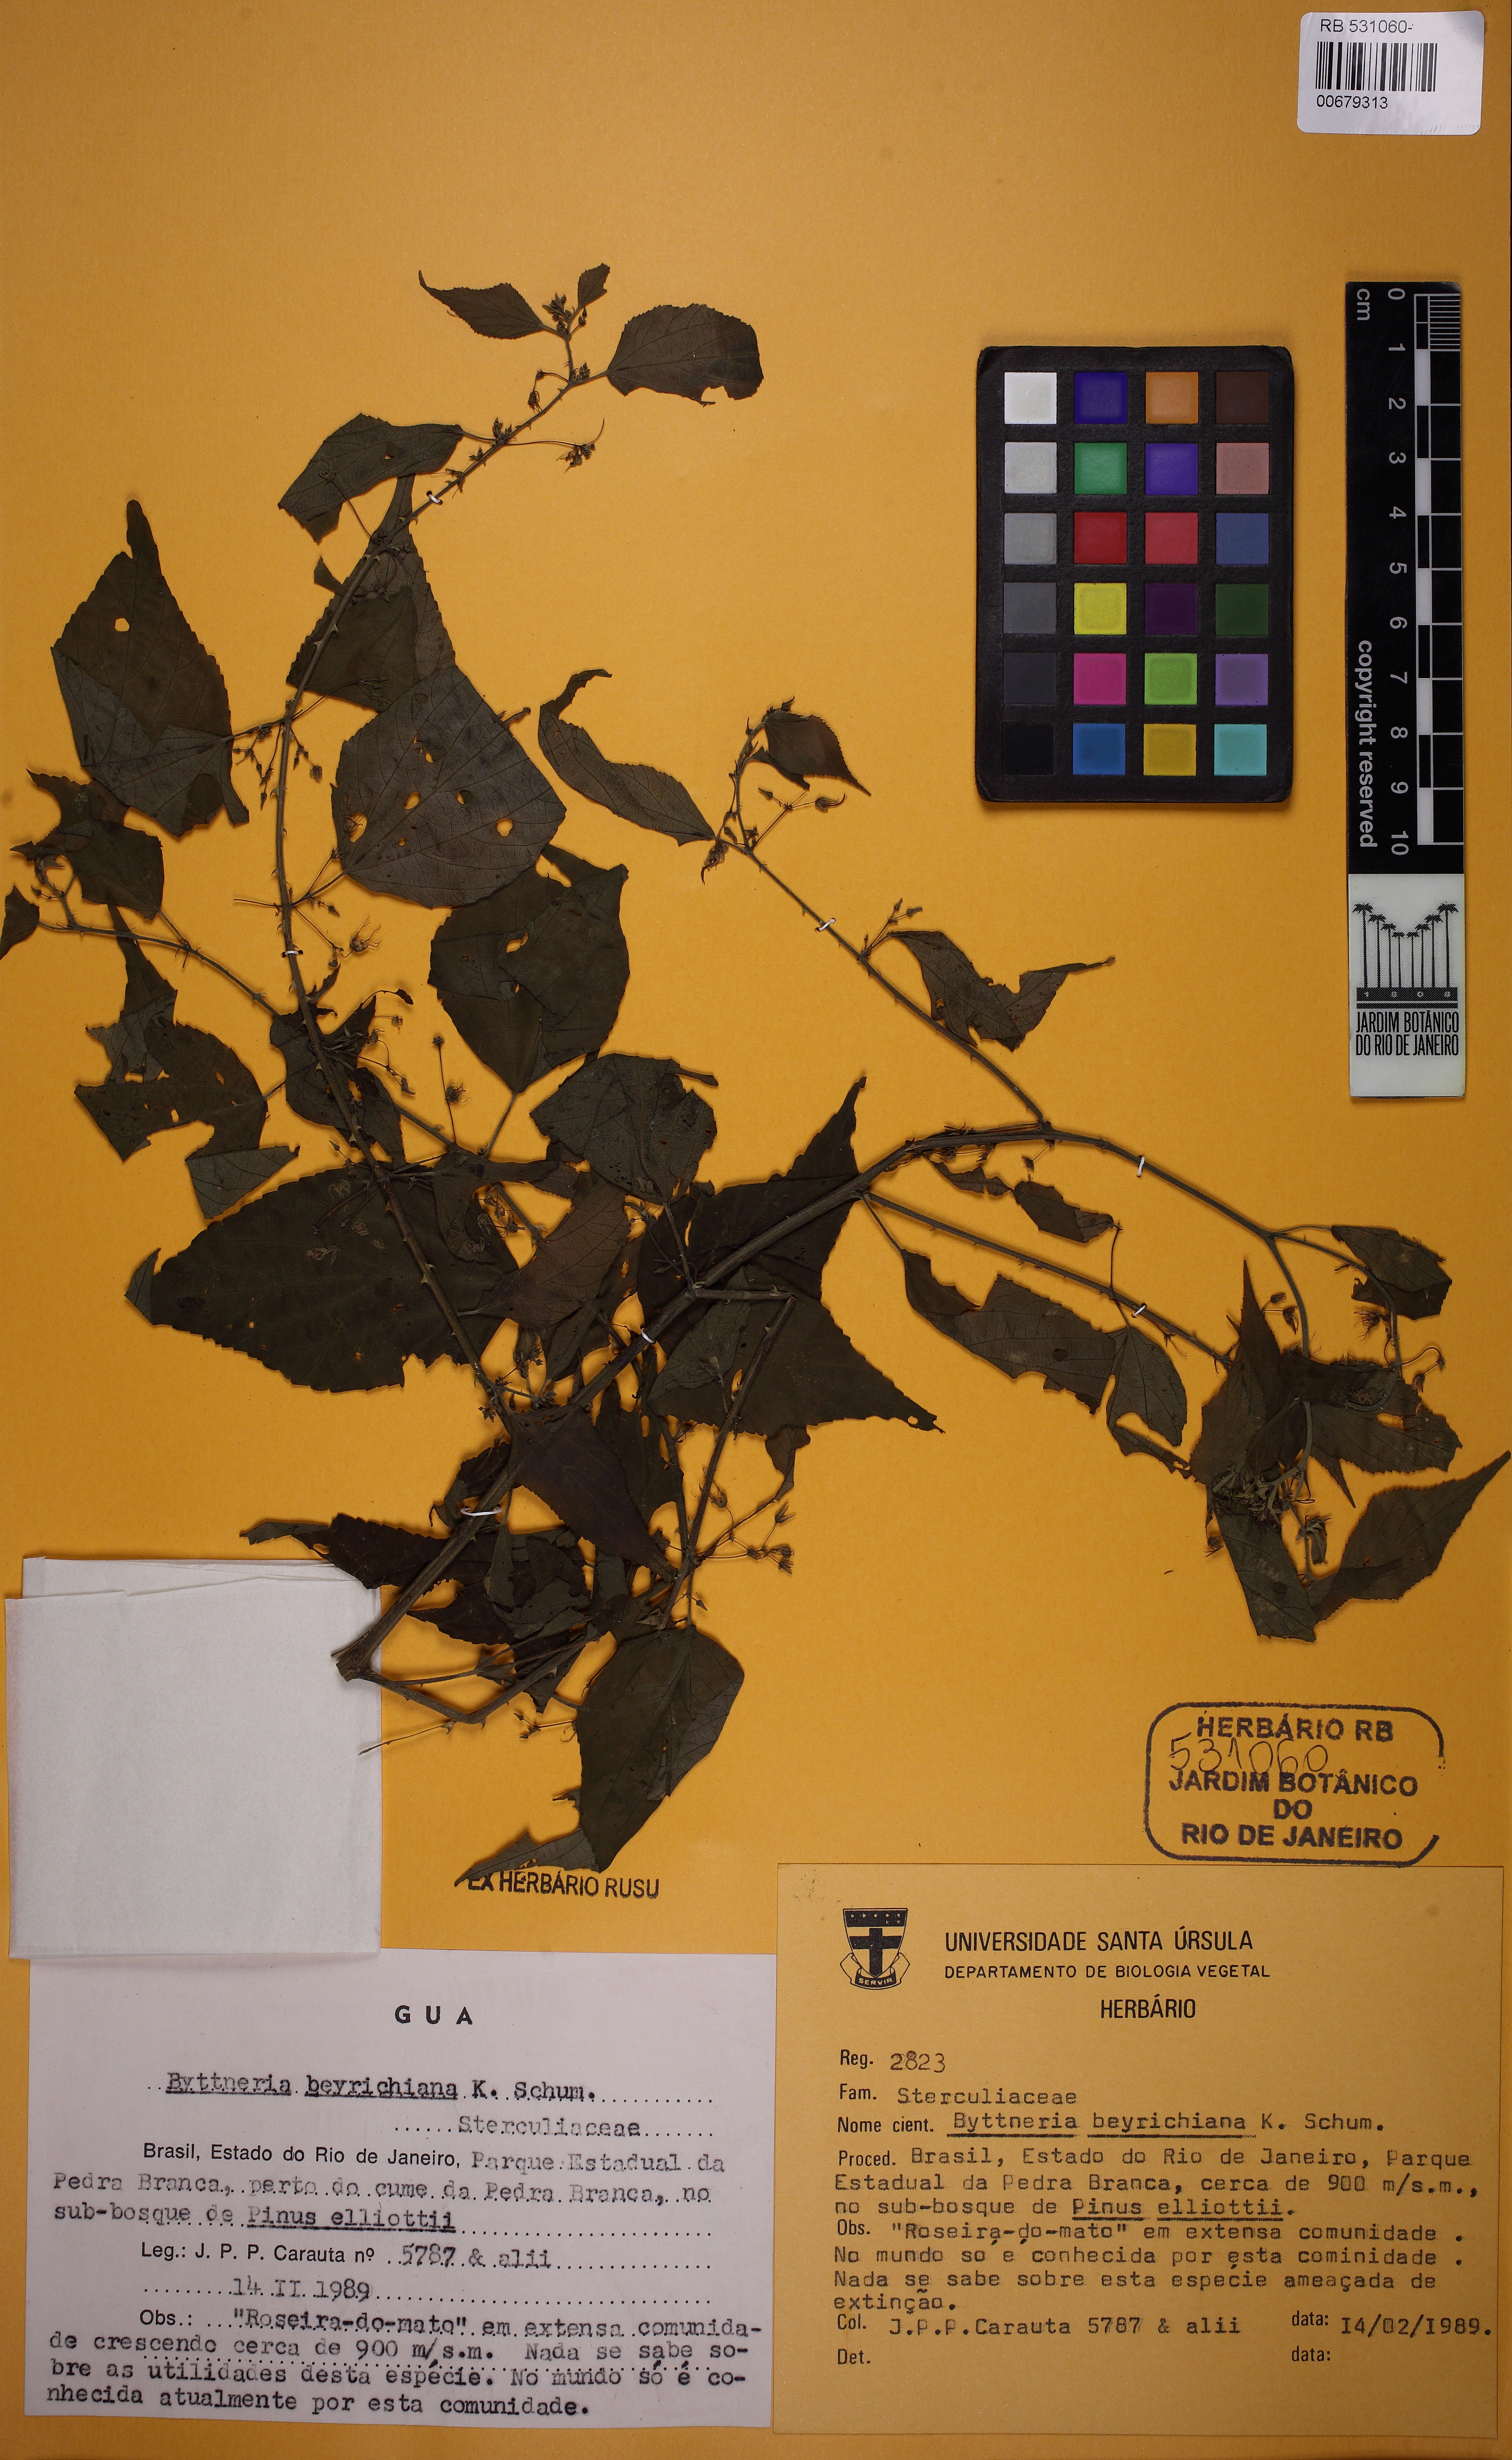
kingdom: Plantae
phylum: Tracheophyta
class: Magnoliopsida
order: Malvales
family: Malvaceae
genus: Byttneria
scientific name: Byttneria beyrichiana
